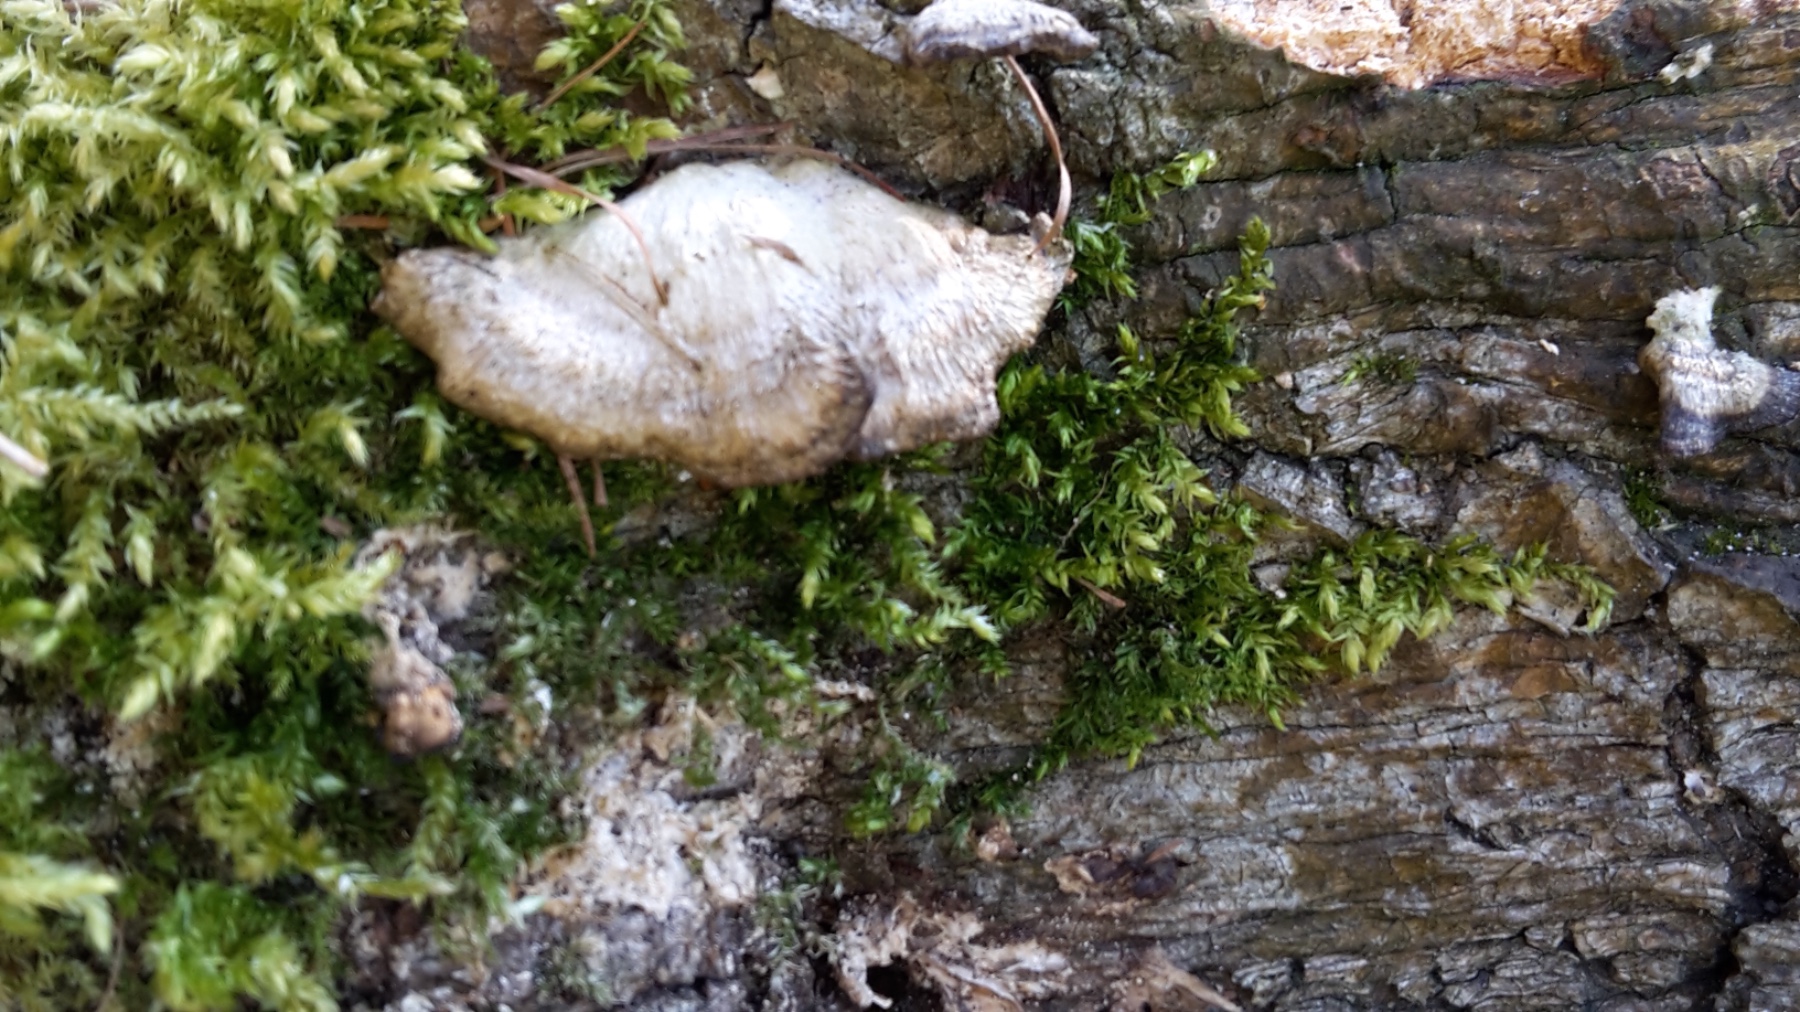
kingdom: Fungi
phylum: Basidiomycota
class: Agaricomycetes
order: Polyporales
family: Phanerochaetaceae
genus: Bjerkandera
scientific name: Bjerkandera adusta
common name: sveden sodporesvamp
